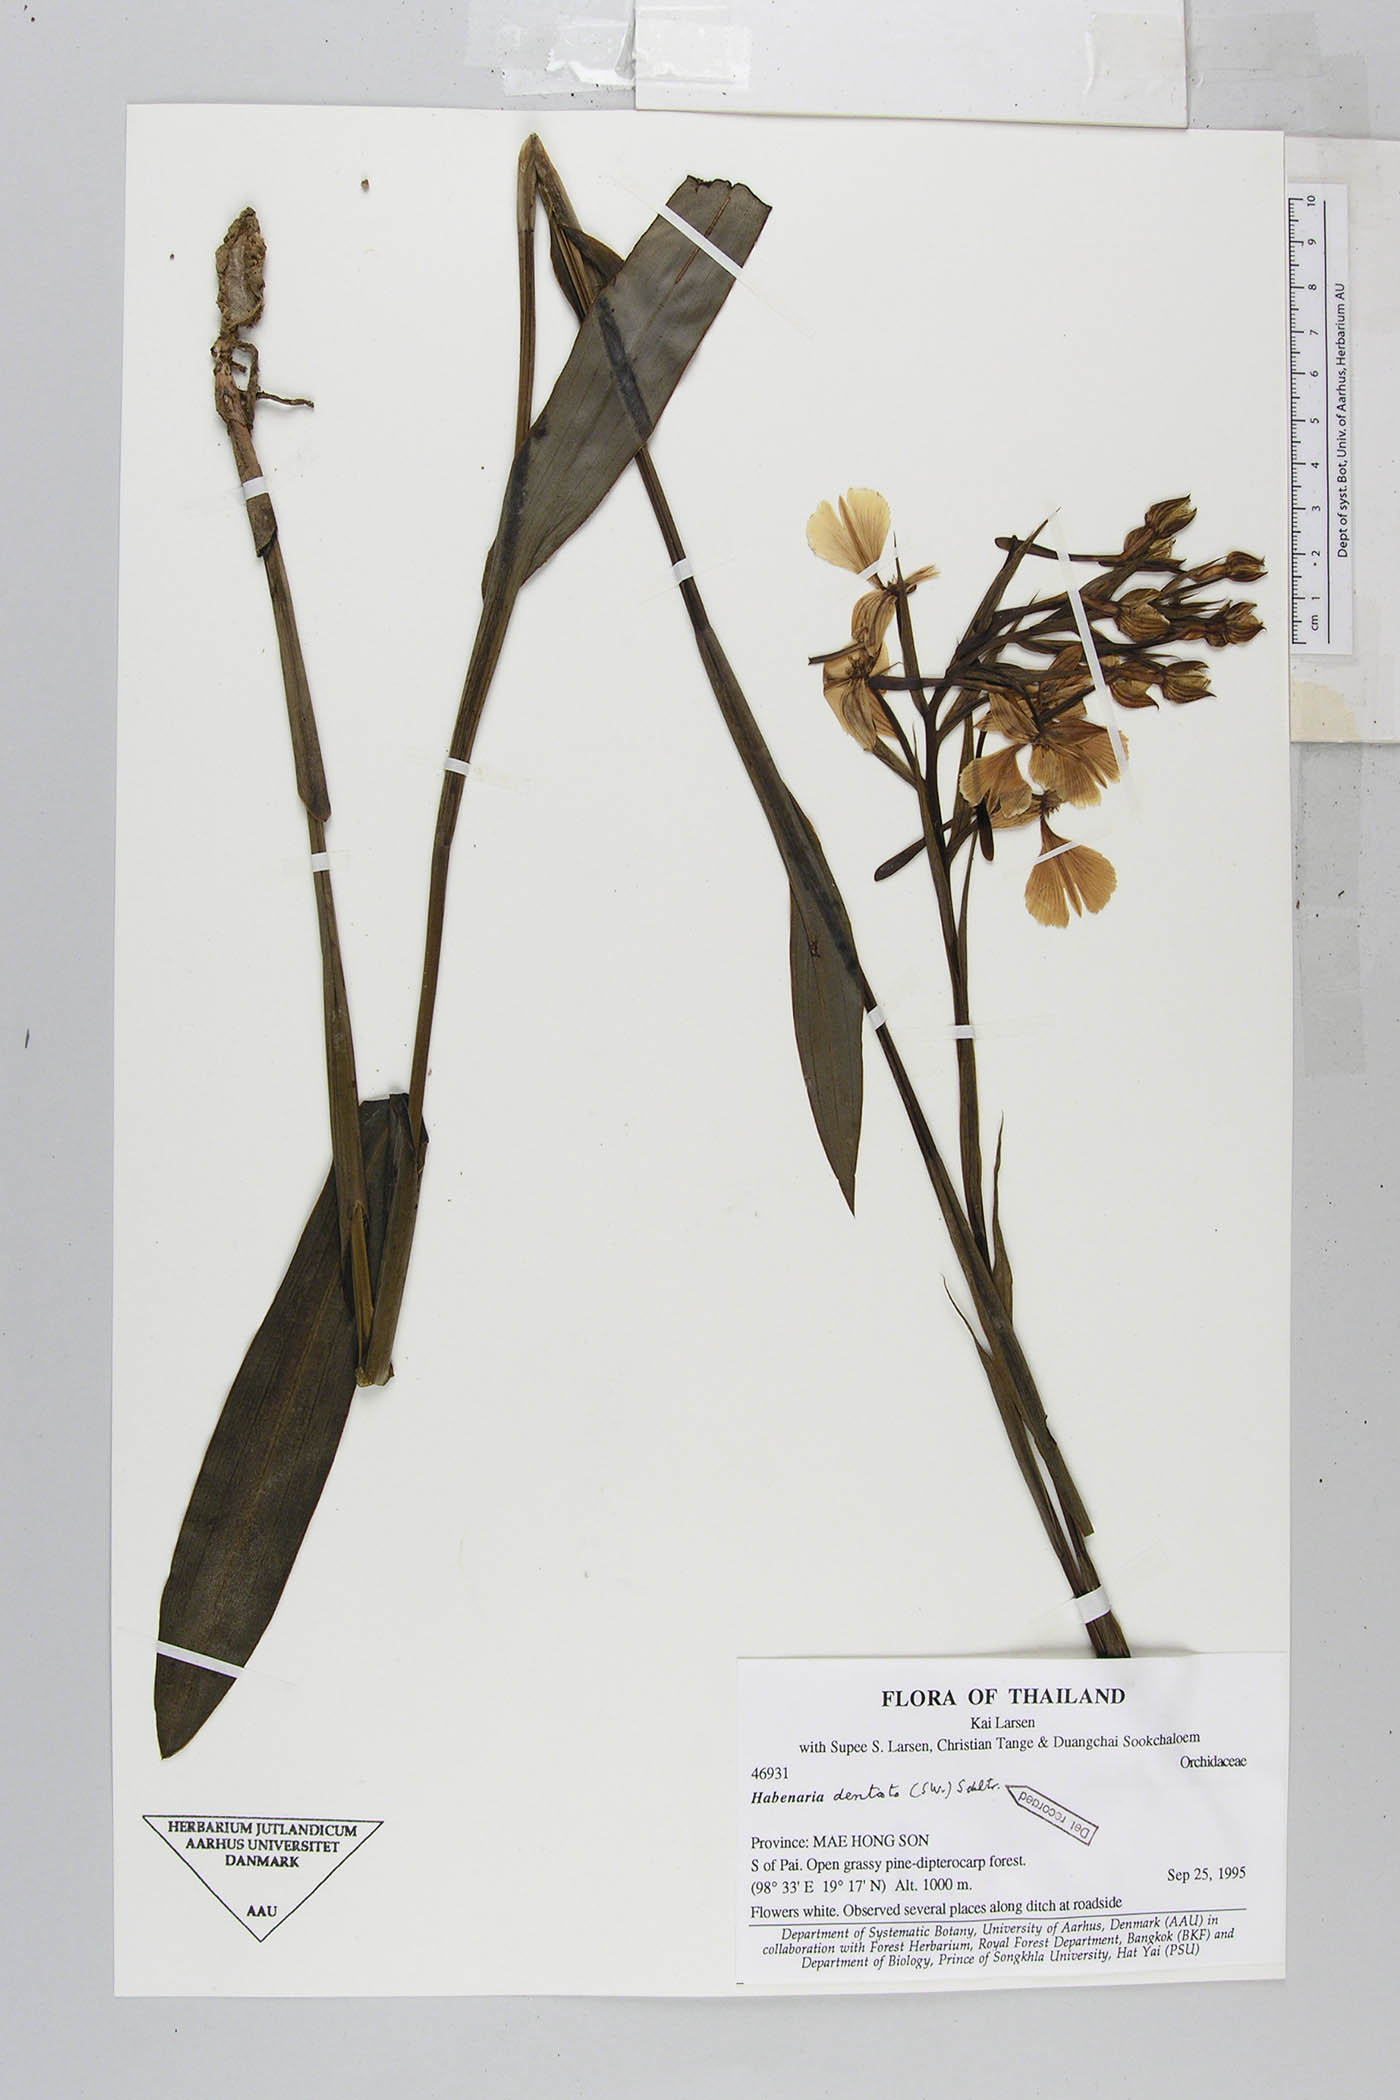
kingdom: Plantae
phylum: Tracheophyta
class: Liliopsida
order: Asparagales
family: Orchidaceae
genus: Habenaria
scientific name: Habenaria dentata
